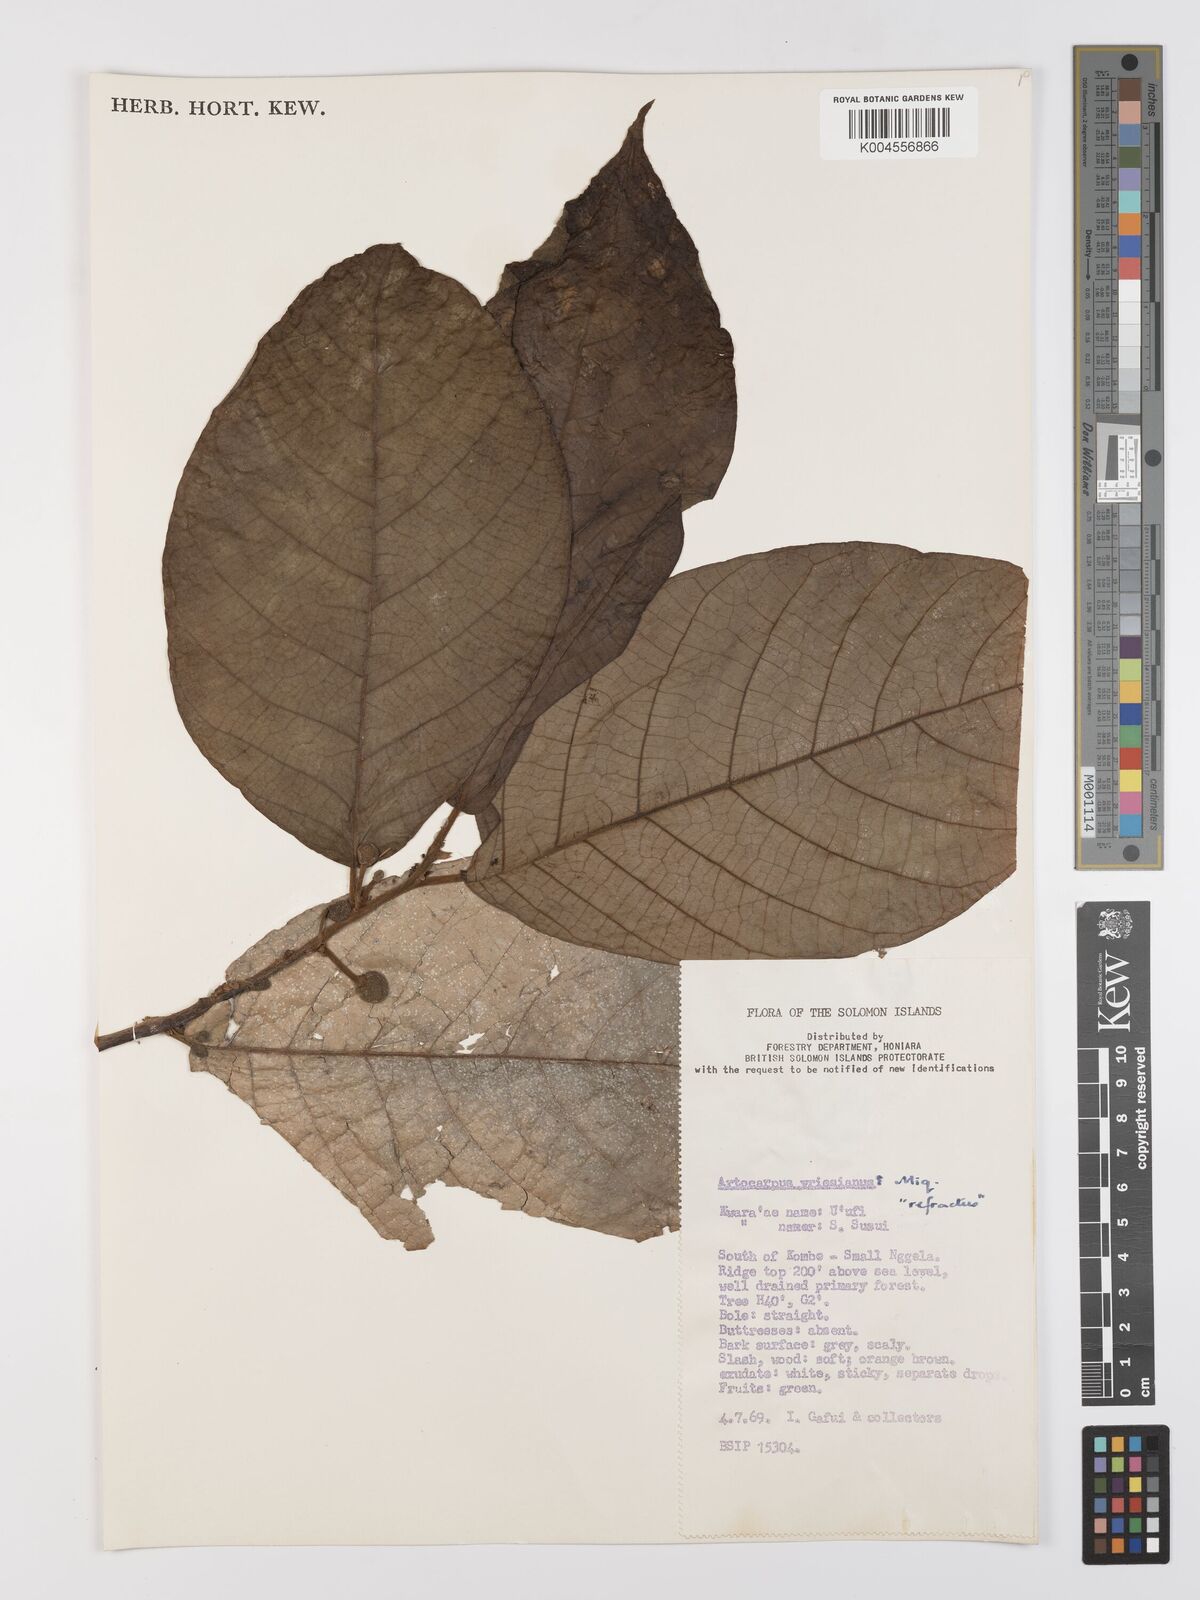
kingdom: Plantae
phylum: Tracheophyta
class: Magnoliopsida
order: Rosales
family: Moraceae
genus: Artocarpus
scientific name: Artocarpus vrieseanus
